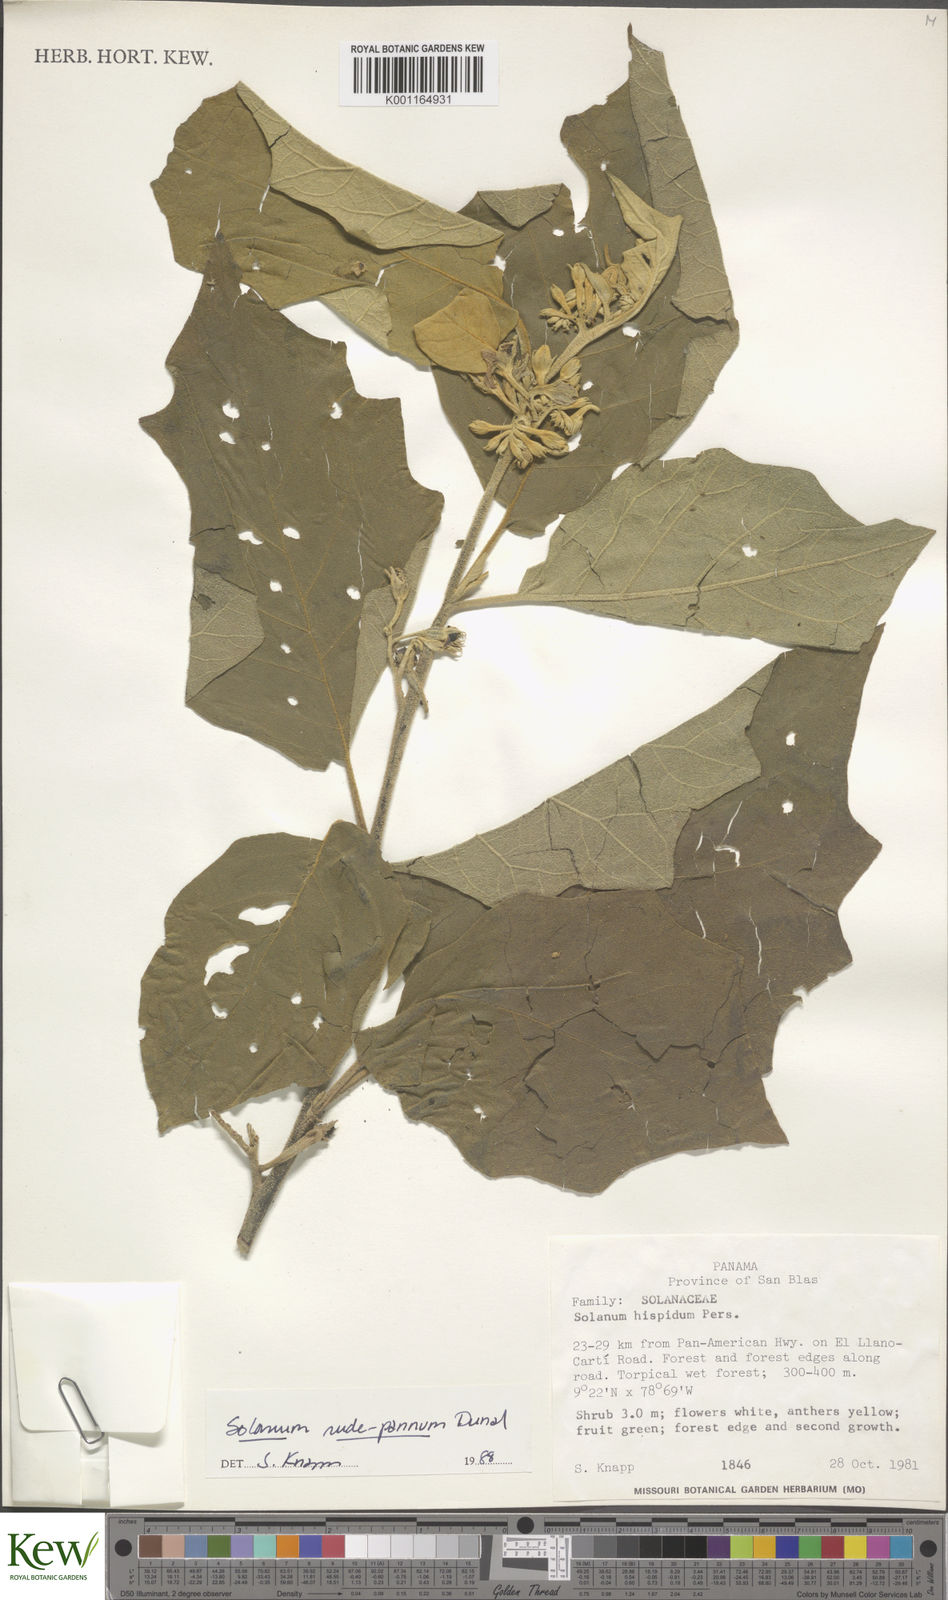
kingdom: Plantae
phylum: Tracheophyta
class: Magnoliopsida
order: Solanales
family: Solanaceae
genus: Solanum
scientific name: Solanum rude-pannum
